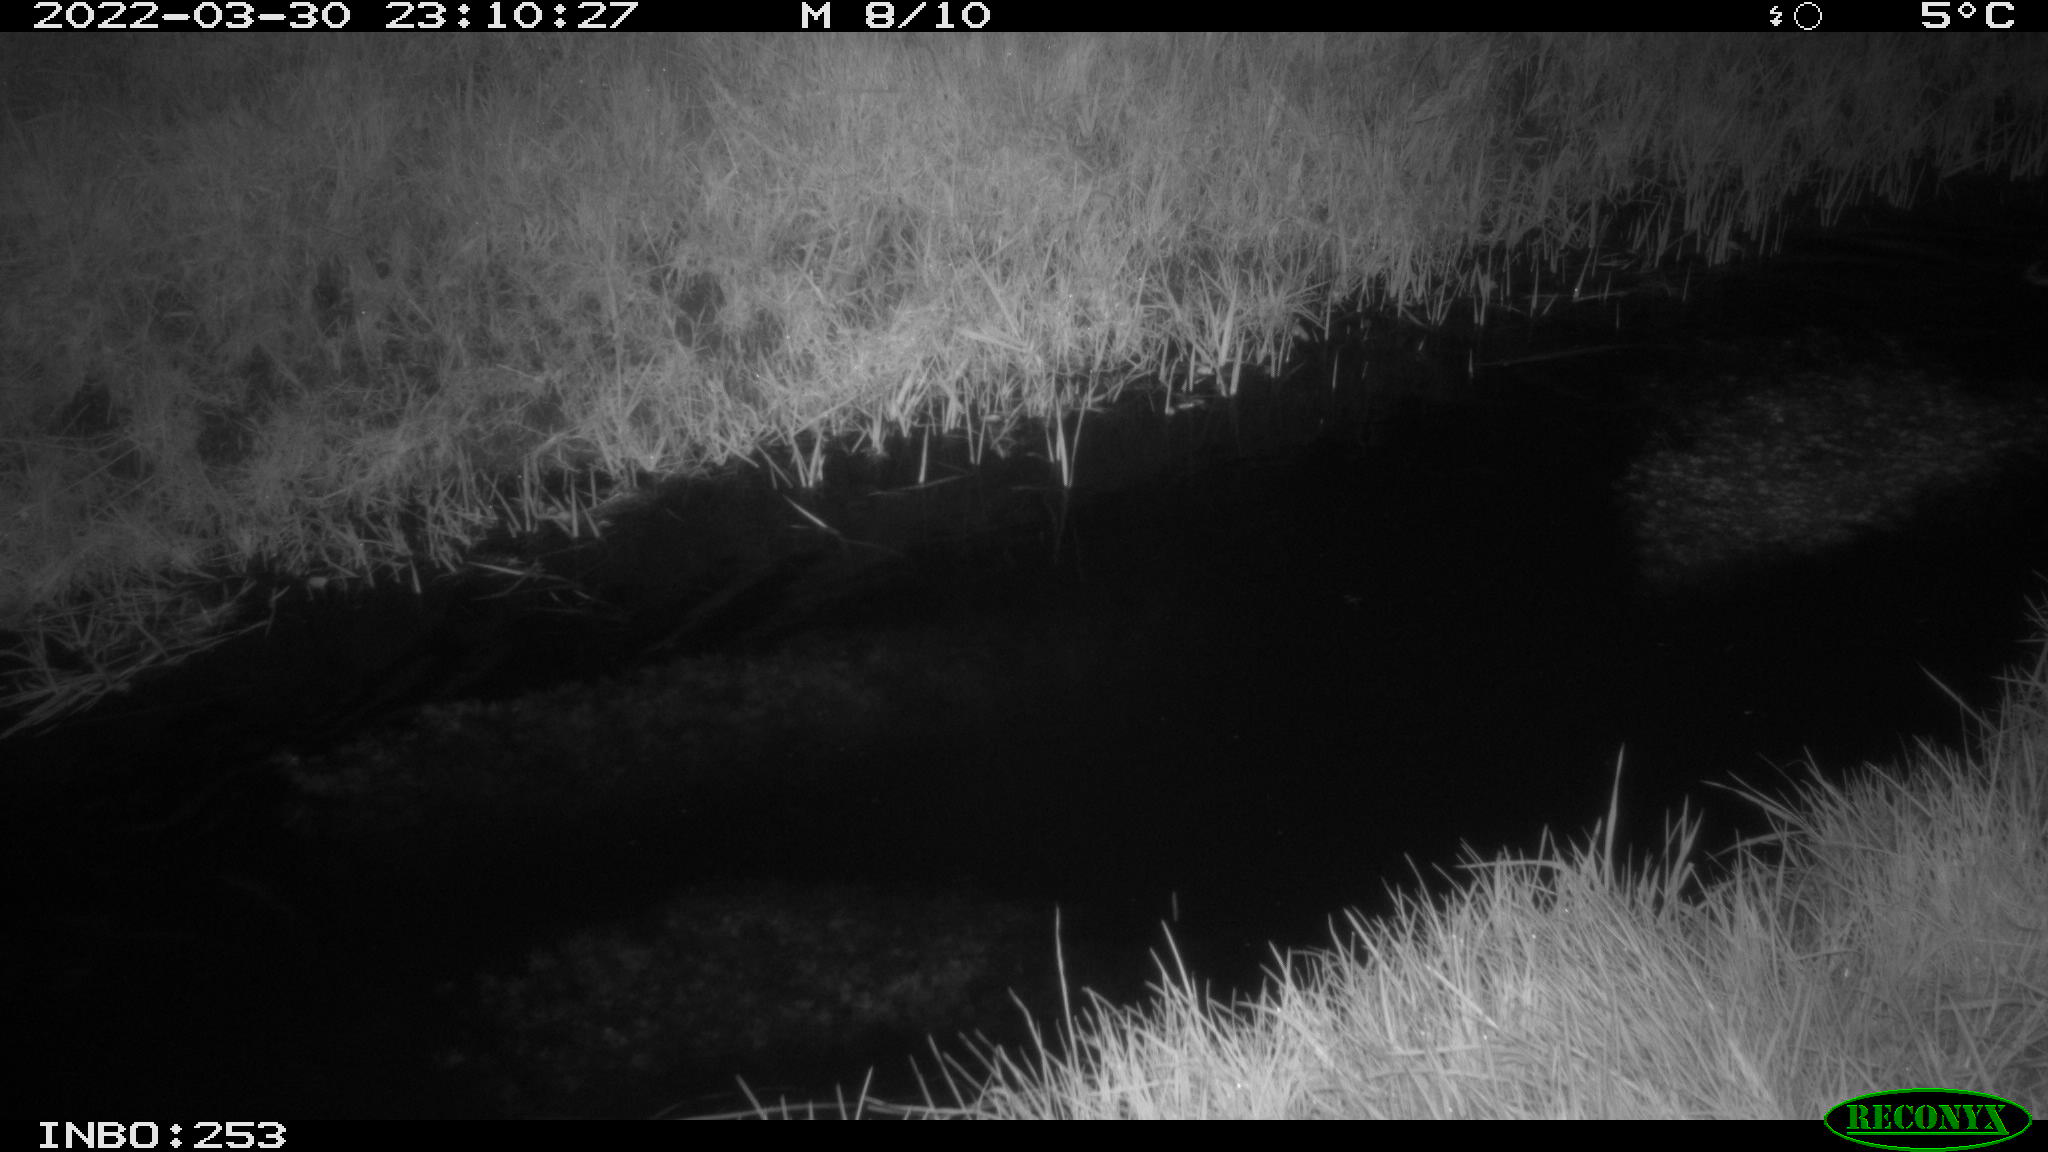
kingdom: Animalia
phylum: Chordata
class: Aves
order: Anseriformes
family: Anatidae
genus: Anas
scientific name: Anas platyrhynchos
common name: Mallard
